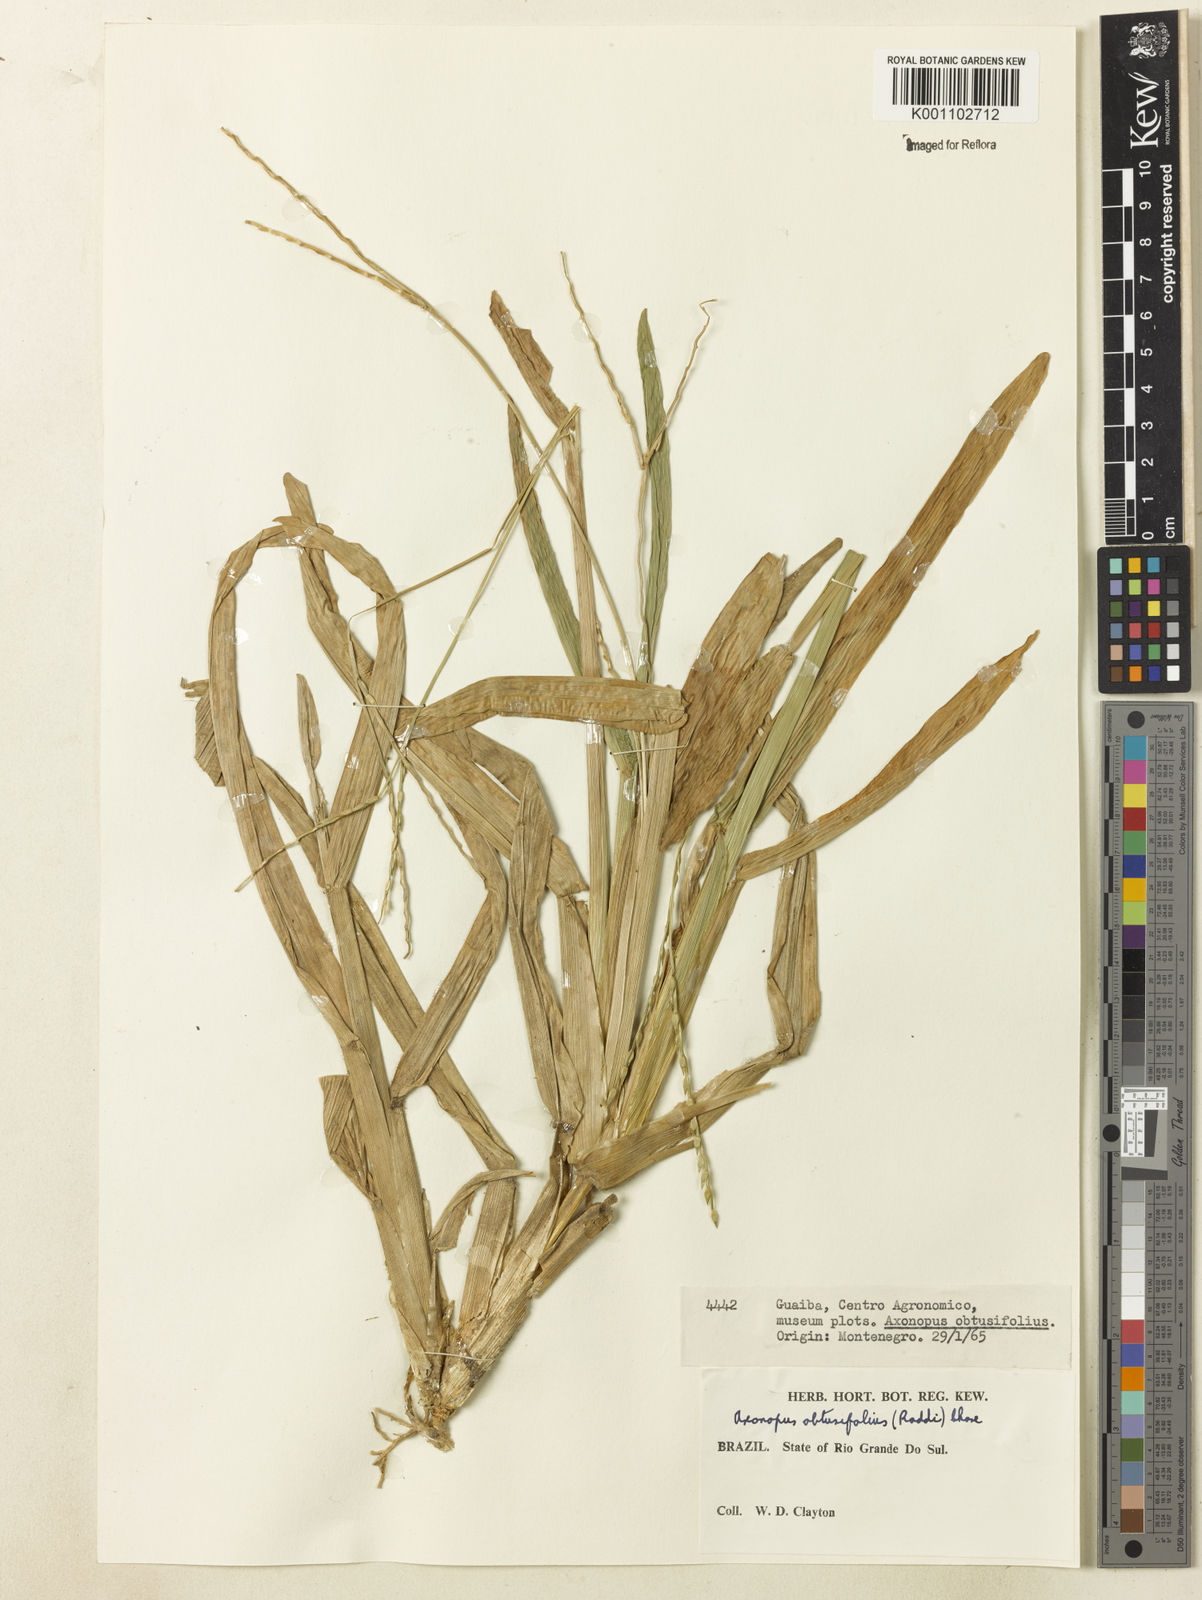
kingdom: Plantae
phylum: Tracheophyta
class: Liliopsida
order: Poales
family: Poaceae
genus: Axonopus
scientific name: Axonopus furcatus
